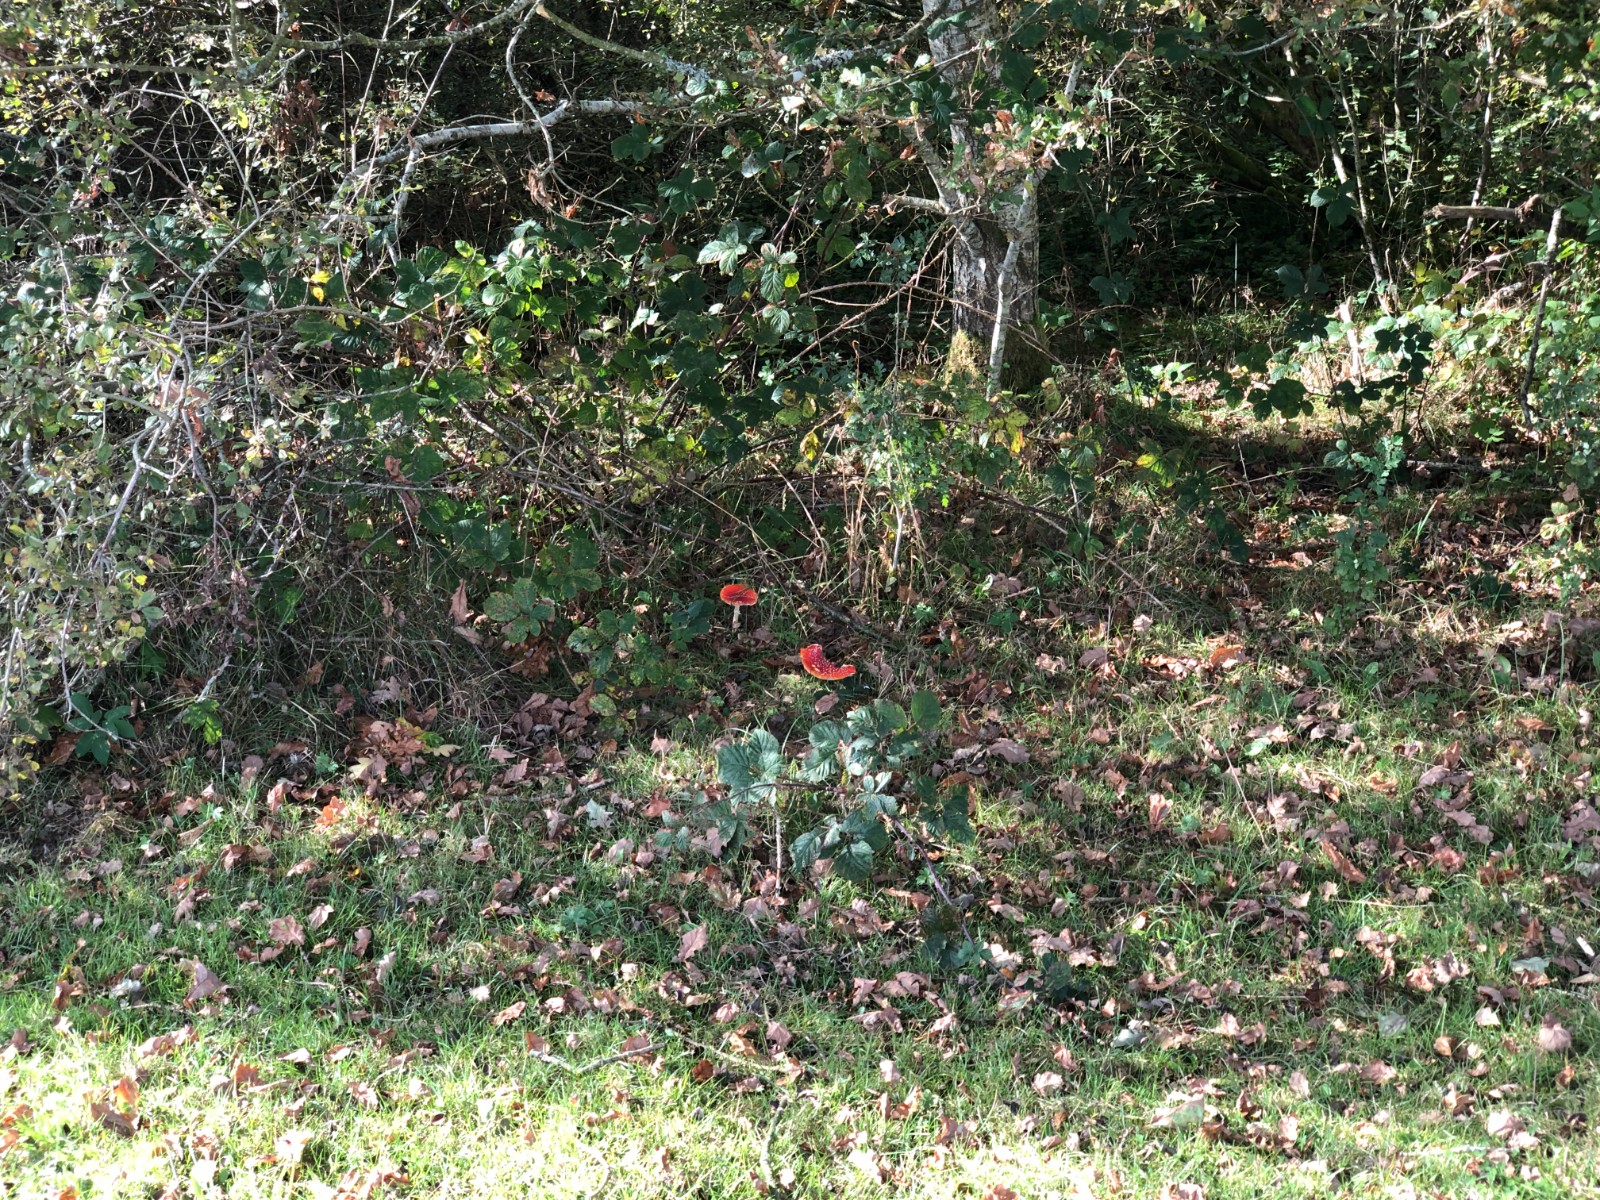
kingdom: Fungi
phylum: Basidiomycota
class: Agaricomycetes
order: Agaricales
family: Amanitaceae
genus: Amanita
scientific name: Amanita muscaria
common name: rød fluesvamp
